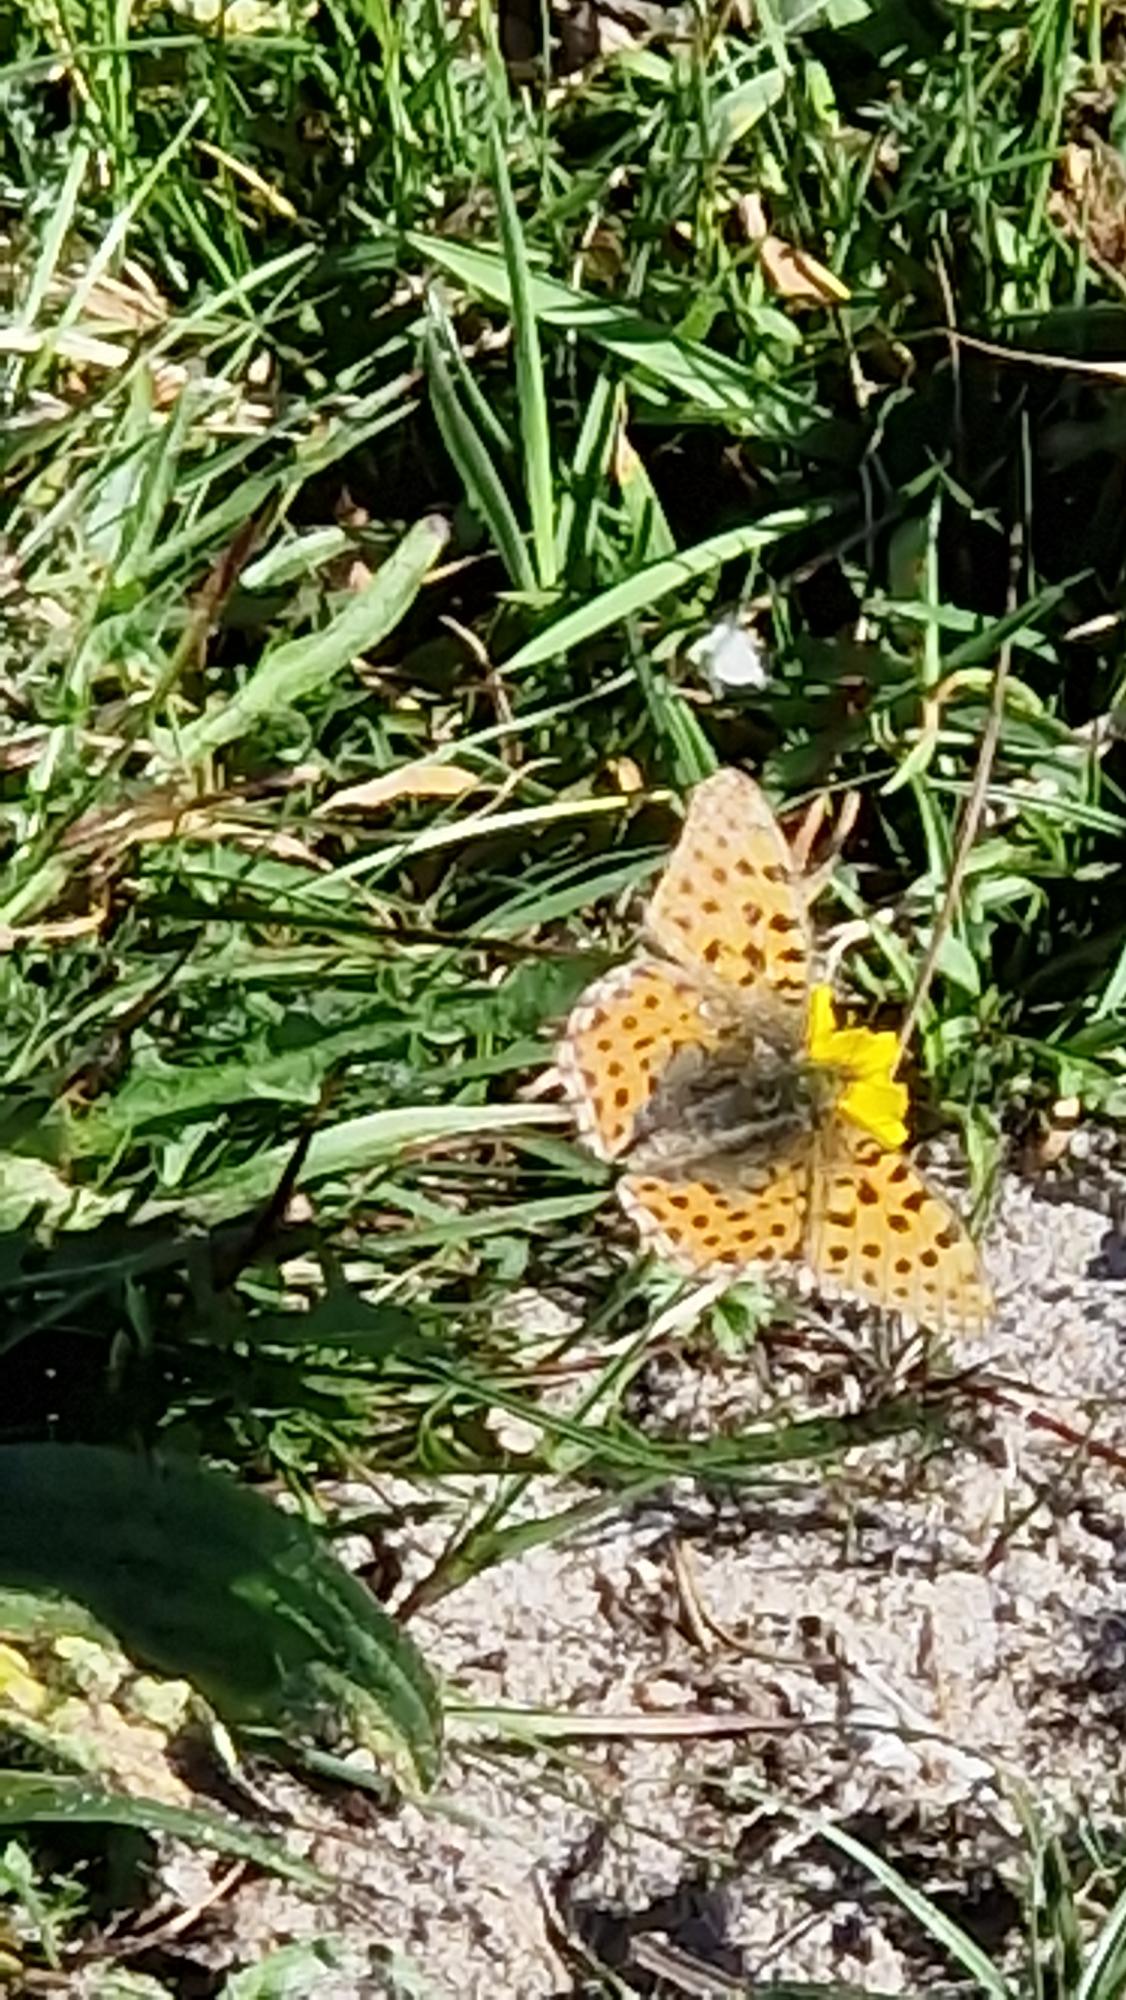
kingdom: Animalia
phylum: Arthropoda
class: Insecta
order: Lepidoptera
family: Nymphalidae
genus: Issoria
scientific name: Issoria lathonia
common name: Storplettet perlemorsommerfugl
